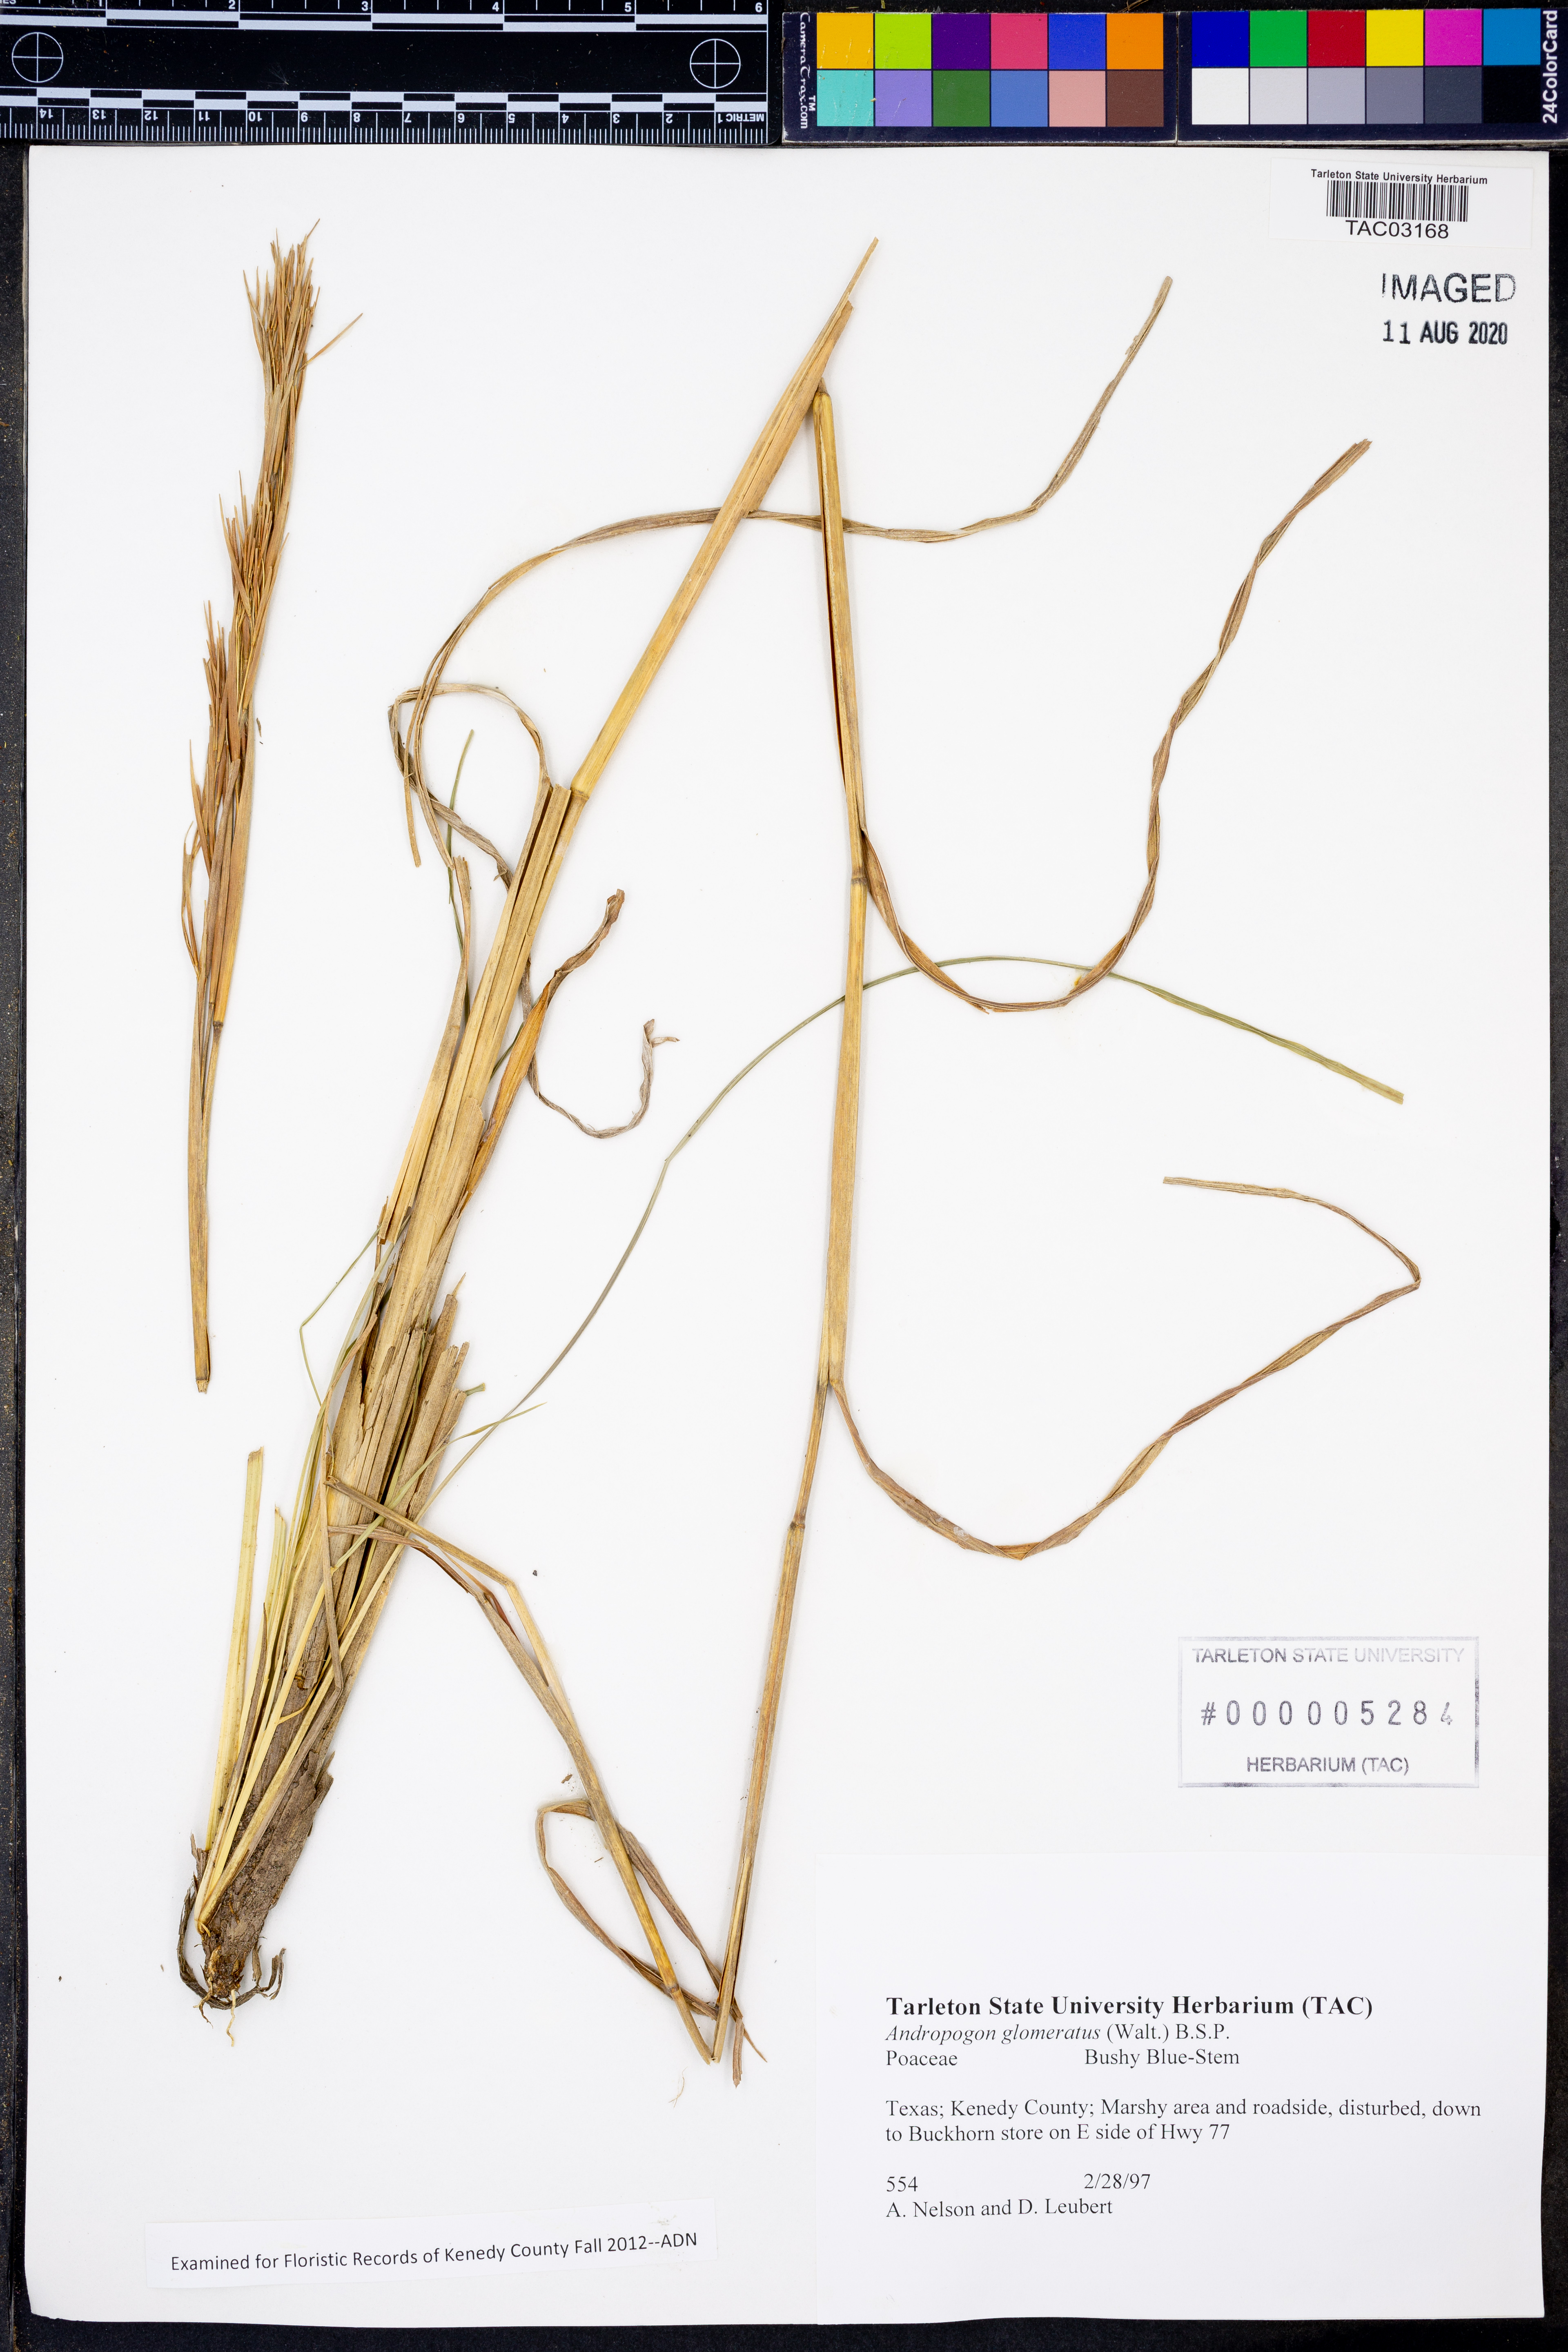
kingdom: Plantae
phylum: Tracheophyta
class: Liliopsida
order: Poales
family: Poaceae
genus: Andropogon
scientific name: Andropogon glomeratus
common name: Bushy beard grass
